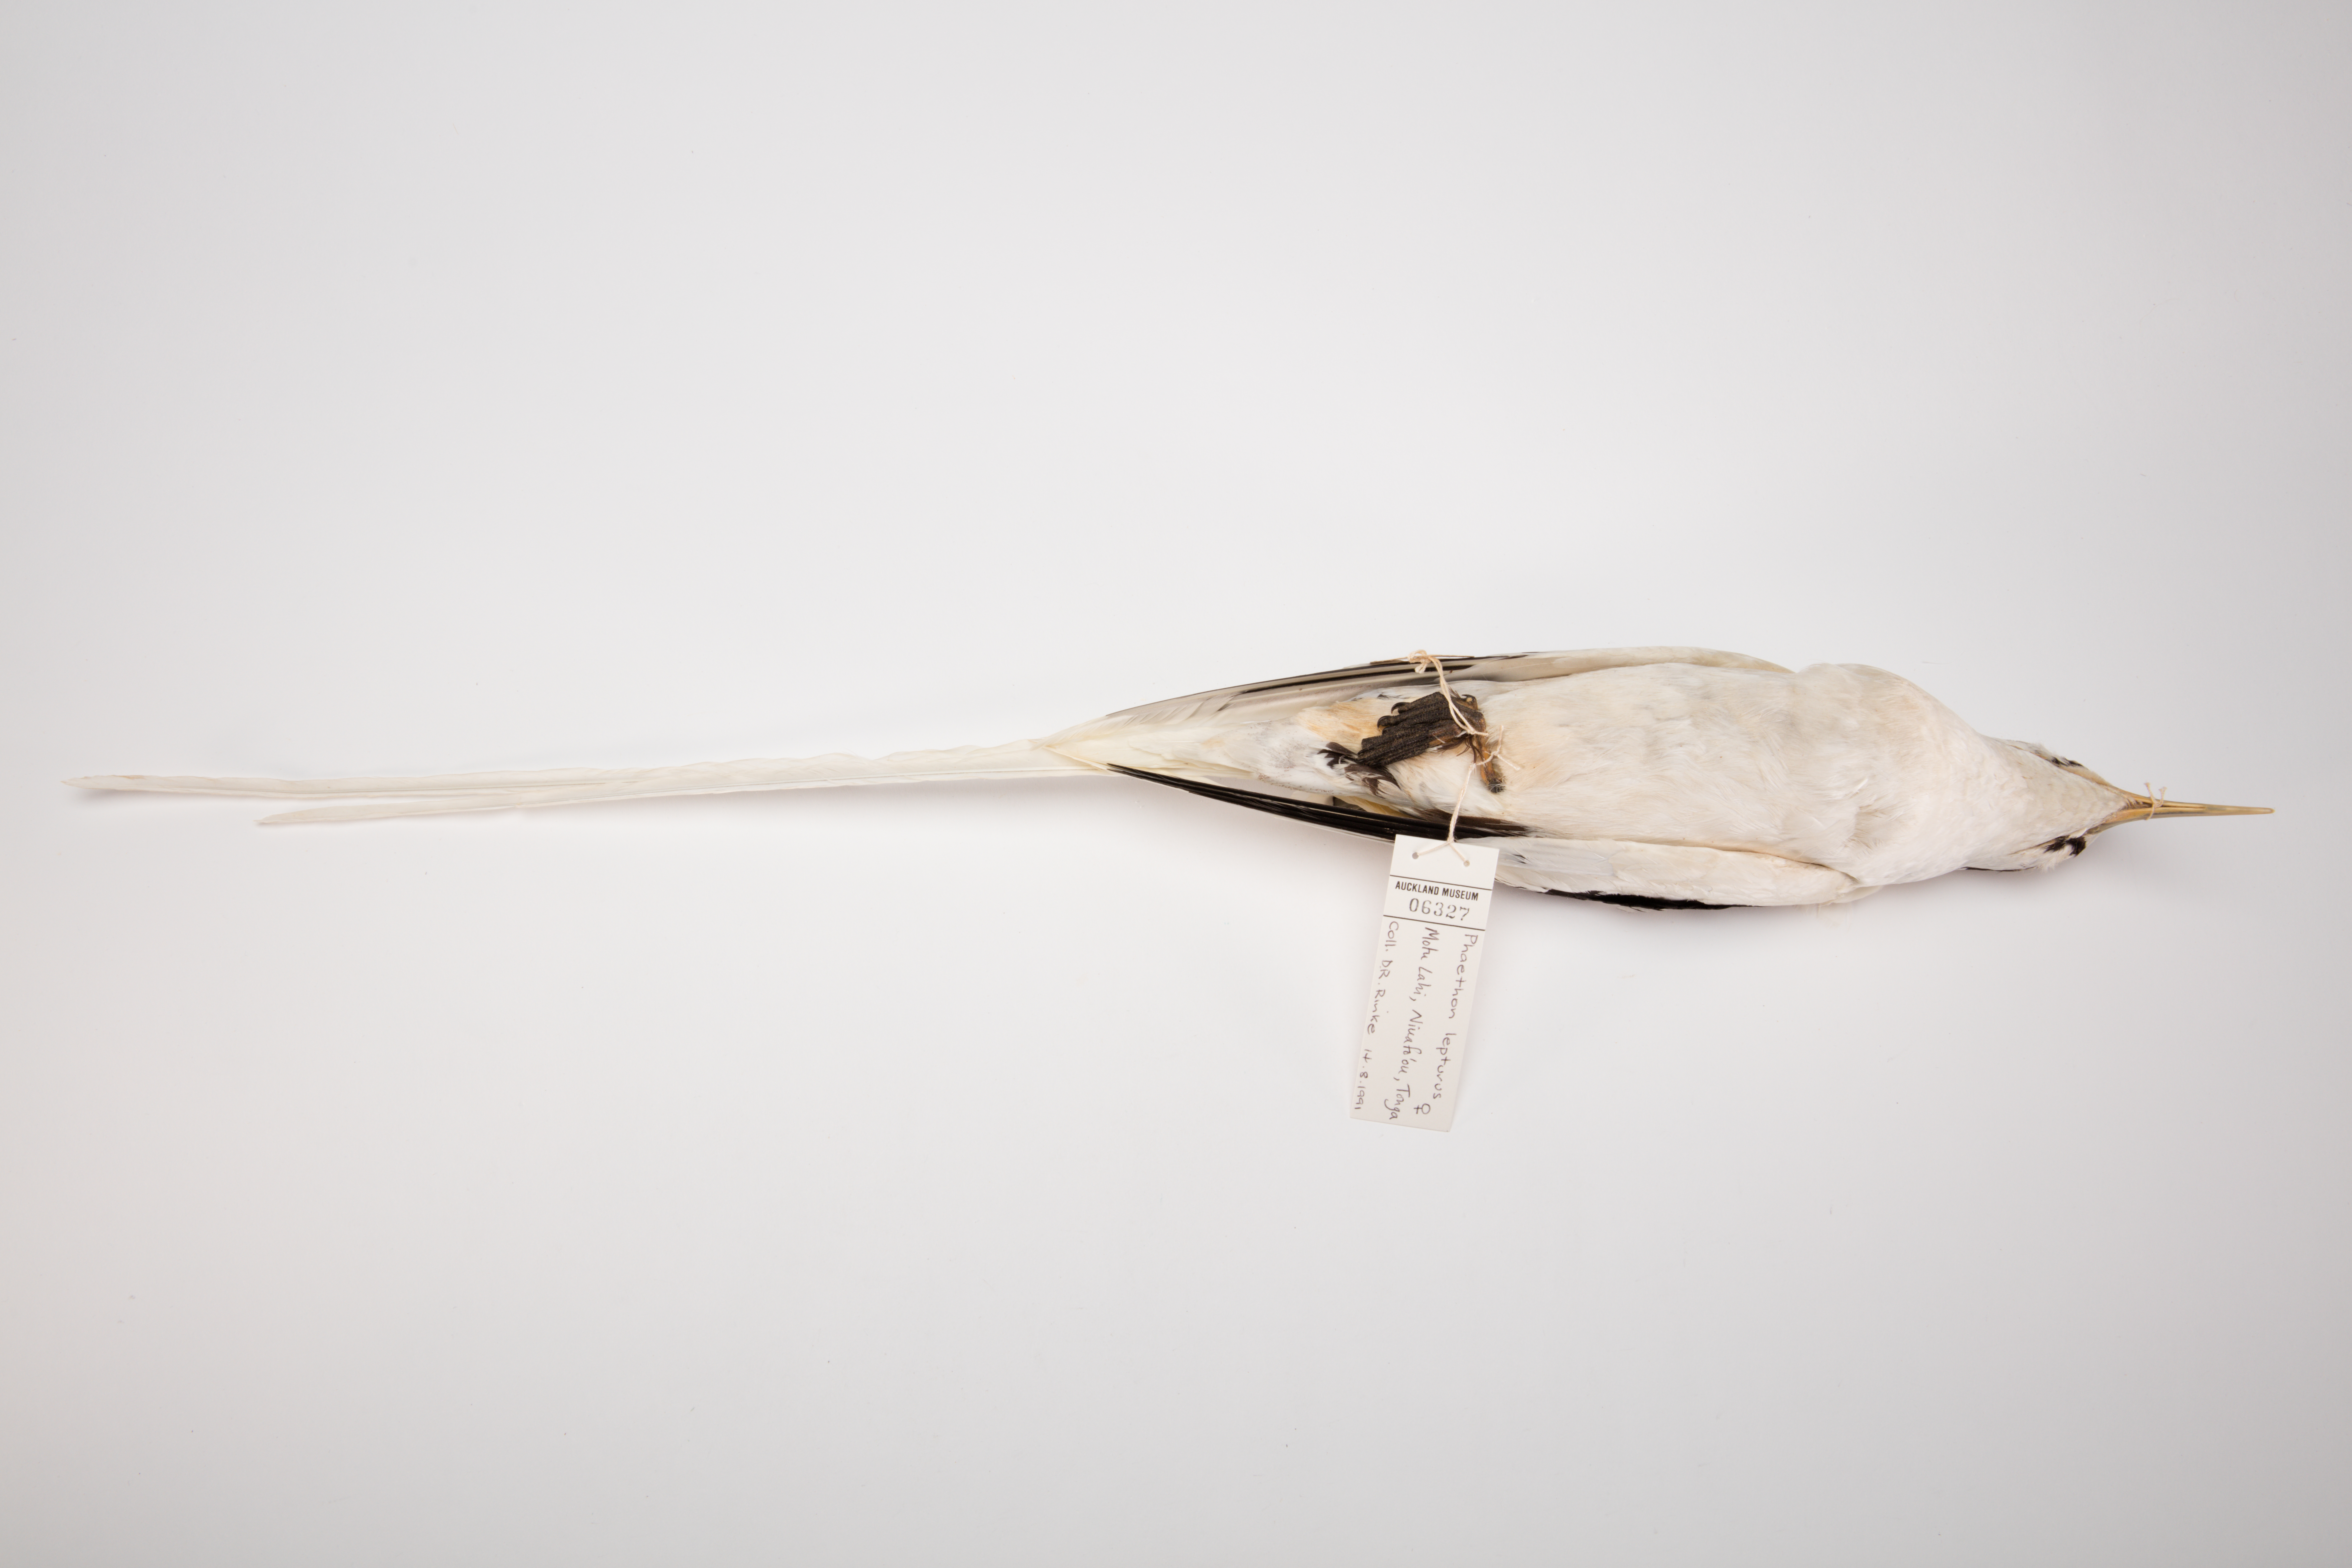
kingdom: Animalia
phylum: Chordata
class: Aves
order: Phaethontiformes
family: Phaethontidae
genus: Phaethon
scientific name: Phaethon lepturus
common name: White-tailed tropicbird
